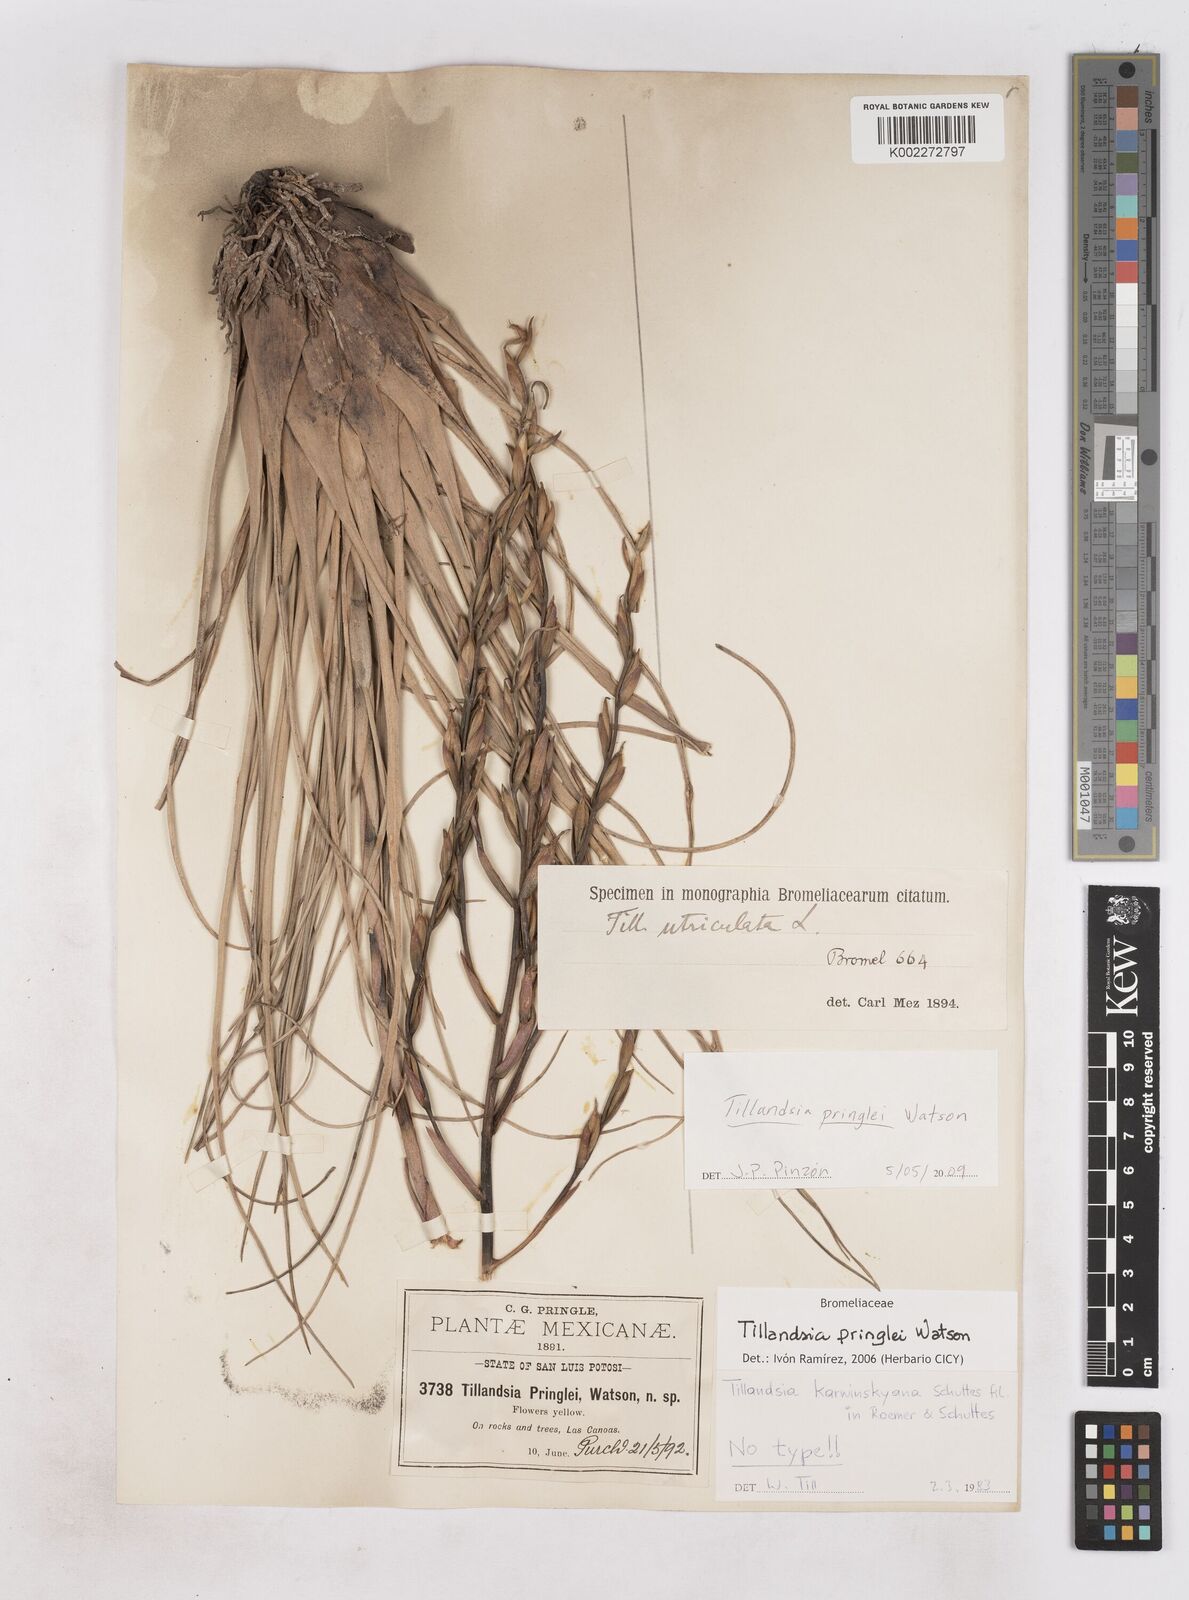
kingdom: Plantae
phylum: Tracheophyta
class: Liliopsida
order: Poales
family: Bromeliaceae
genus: Tillandsia
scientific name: Tillandsia pringlei
